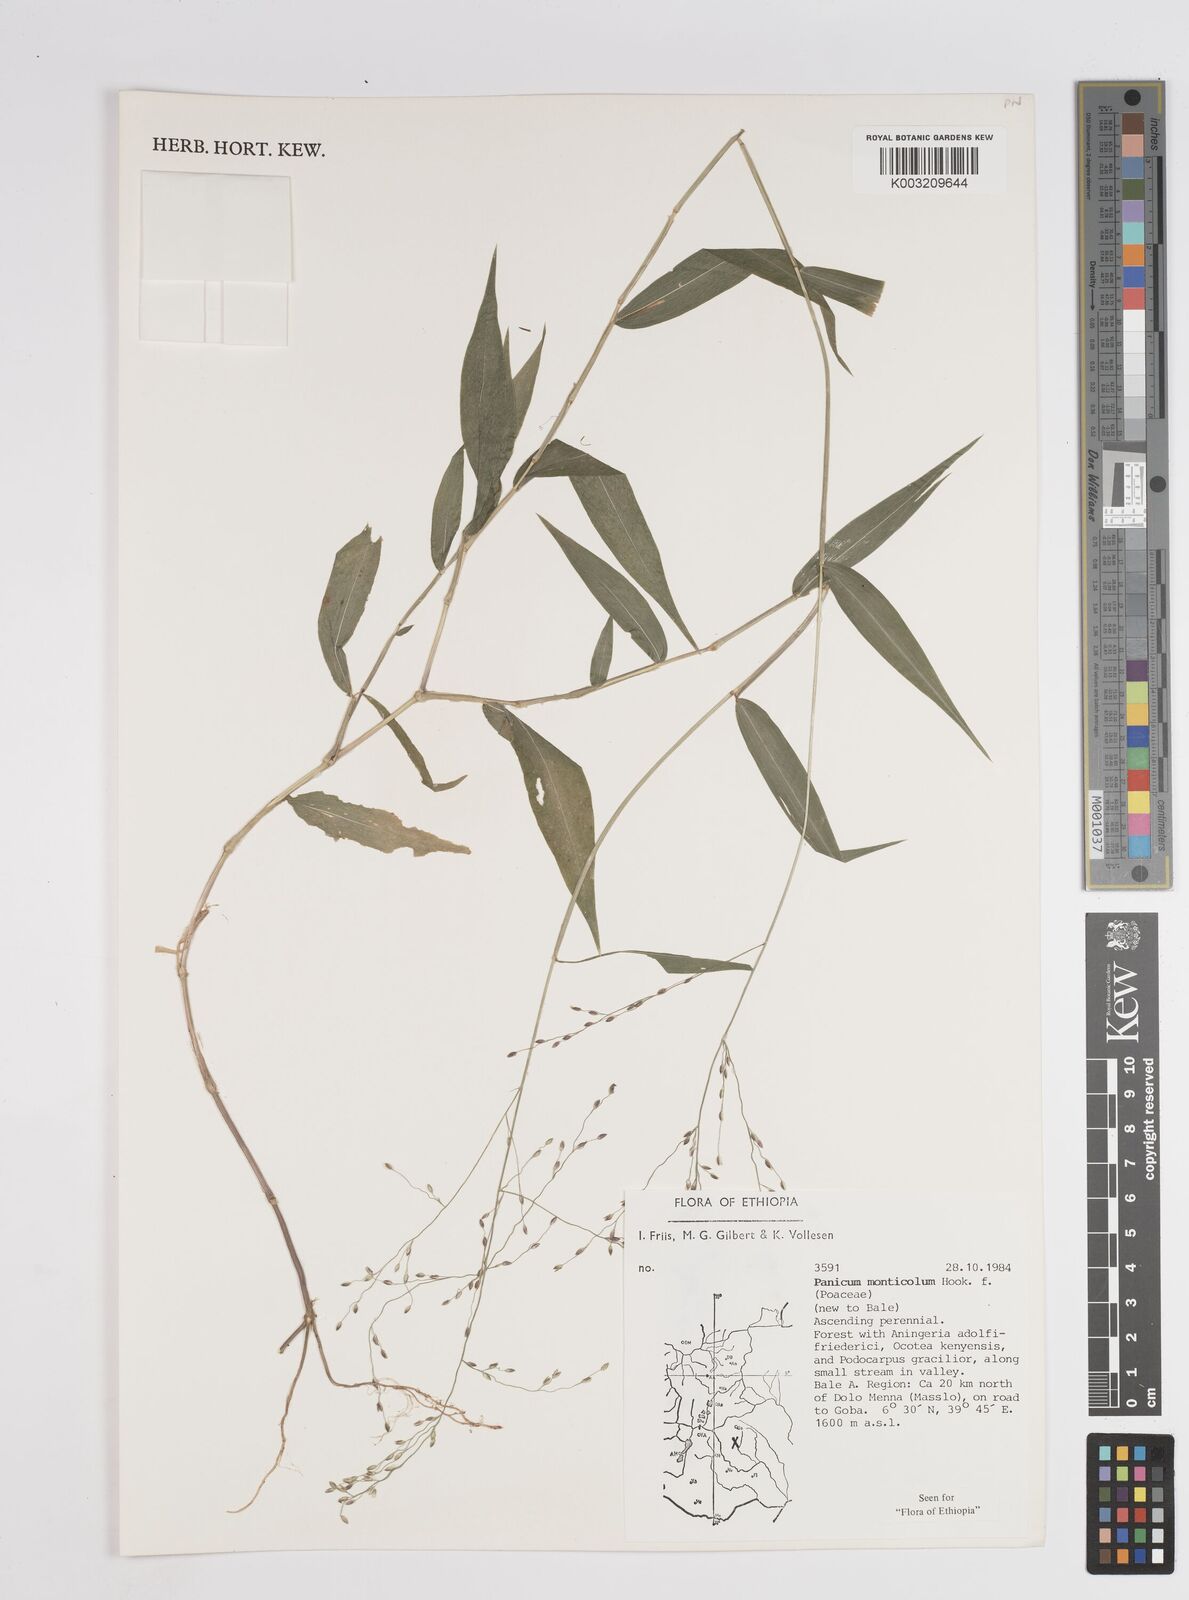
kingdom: Plantae
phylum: Tracheophyta
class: Liliopsida
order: Poales
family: Poaceae
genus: Panicum
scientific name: Panicum monticola
